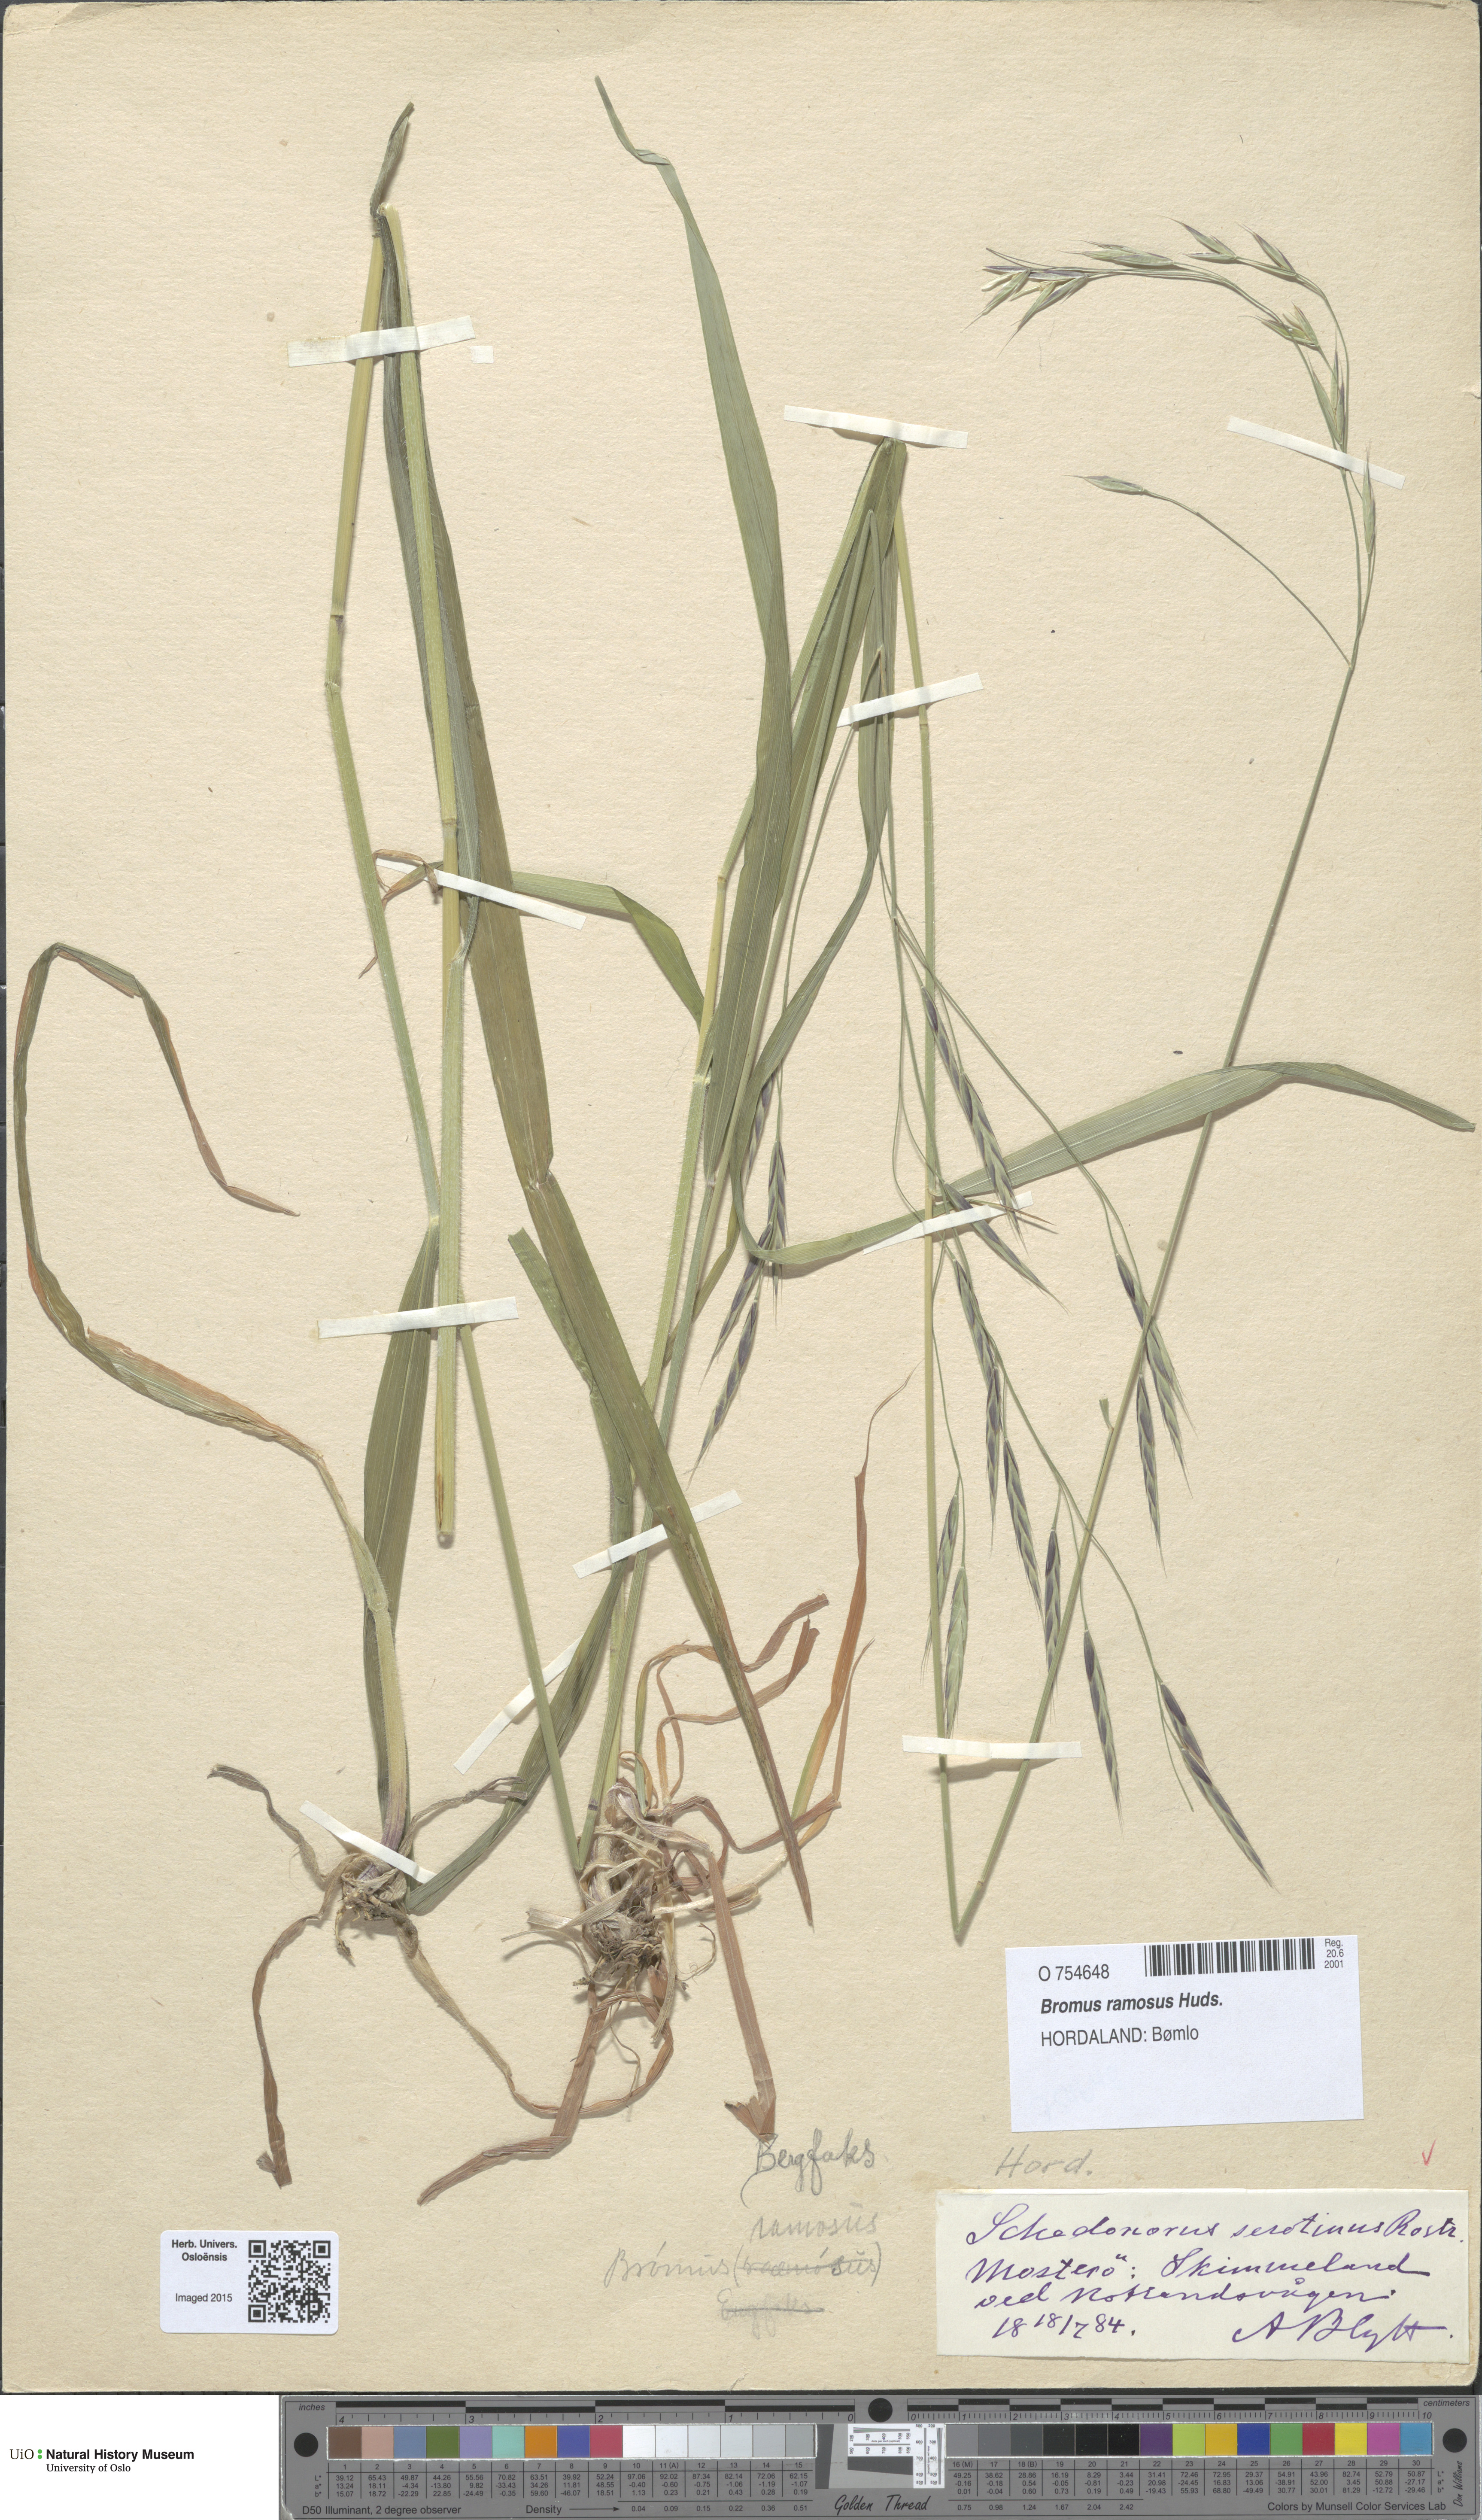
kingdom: Plantae
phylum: Tracheophyta
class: Liliopsida
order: Poales
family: Poaceae
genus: Bromus
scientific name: Bromus ramosus
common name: Hairy brome
